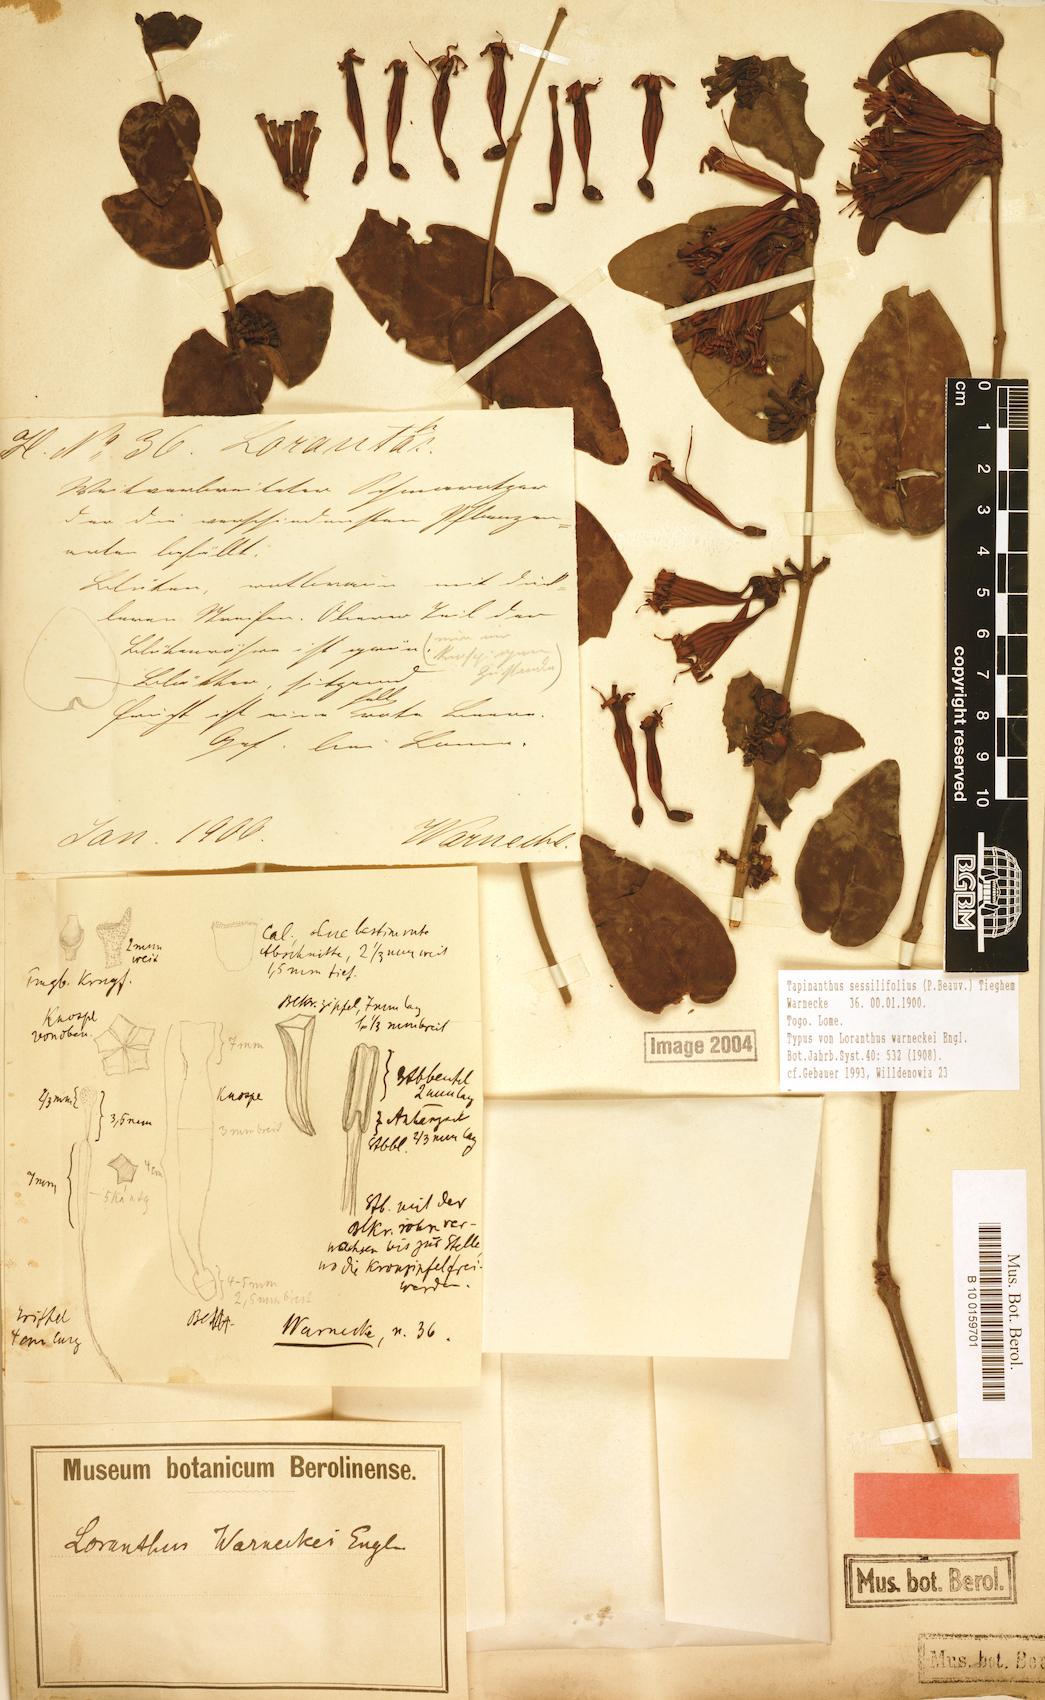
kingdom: Plantae
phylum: Tracheophyta
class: Magnoliopsida
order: Santalales
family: Loranthaceae
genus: Tapinanthus
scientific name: Tapinanthus sessilifolius
